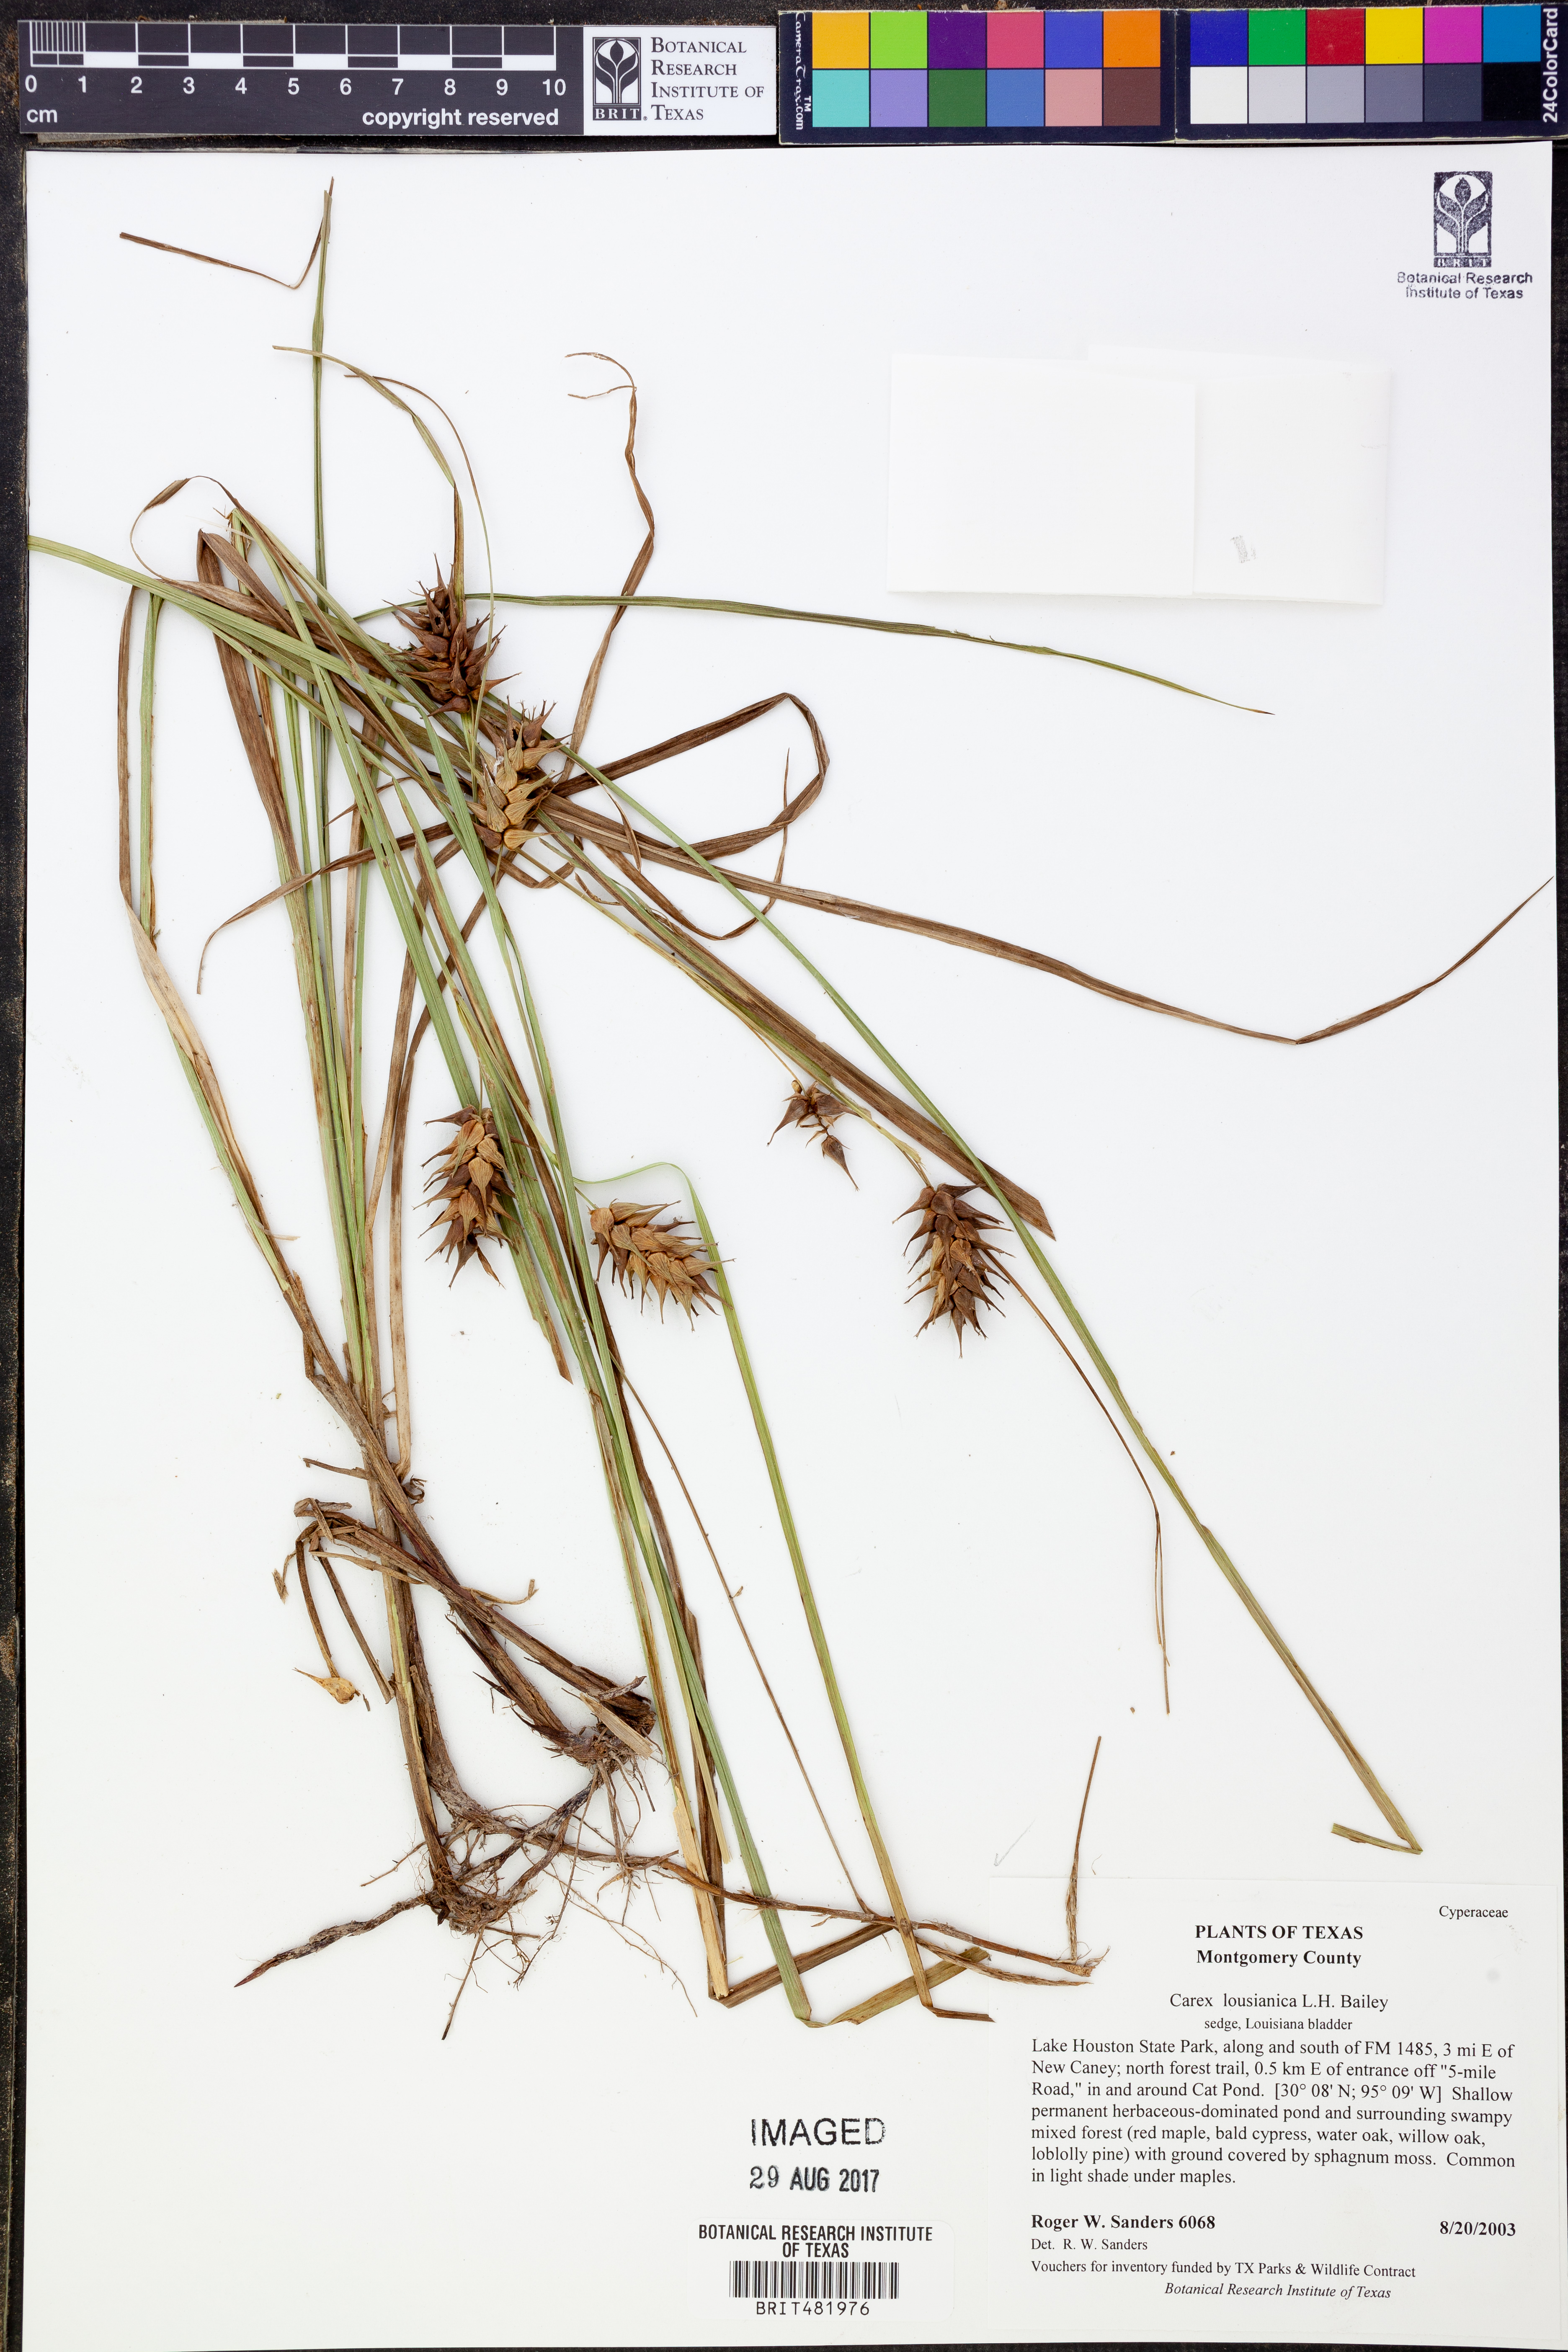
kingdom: Plantae
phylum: Tracheophyta
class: Liliopsida
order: Poales
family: Cyperaceae
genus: Carex
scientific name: Carex louisianica
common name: Louisiana sedge
